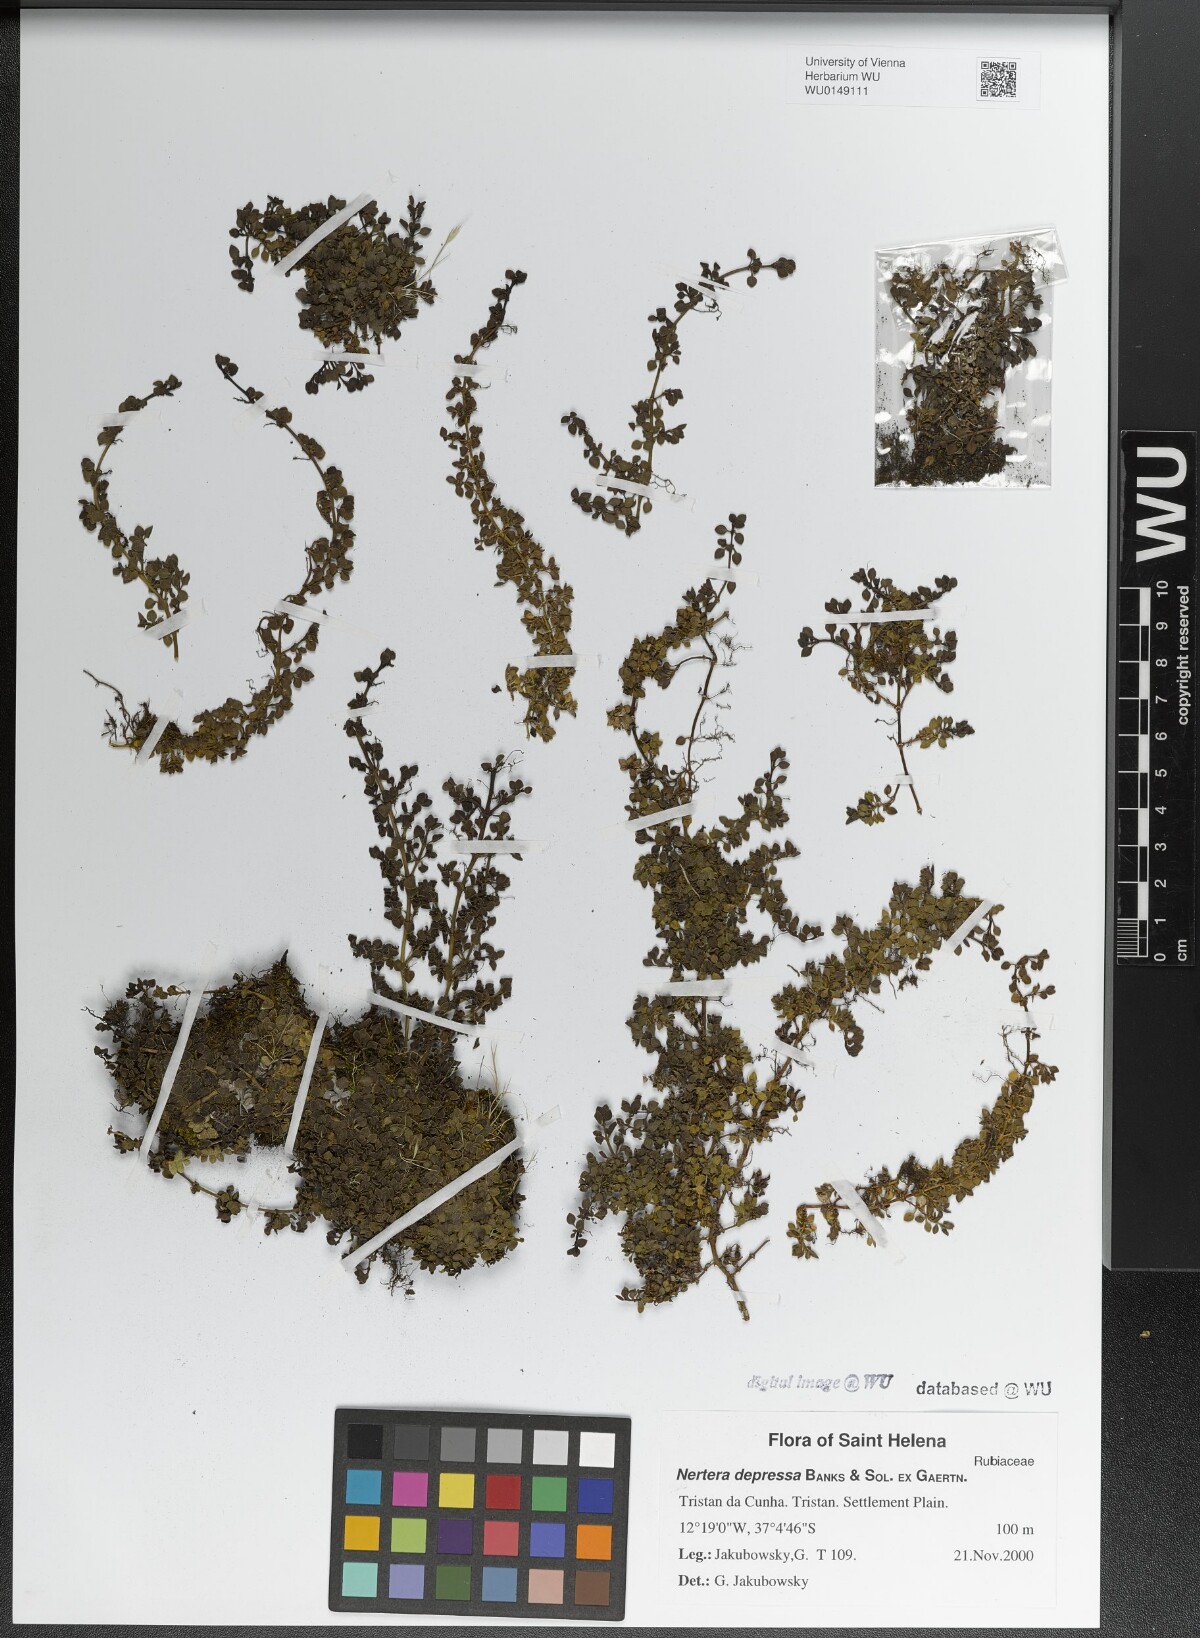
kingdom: Plantae
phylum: Tracheophyta
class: Magnoliopsida
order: Gentianales
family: Rubiaceae
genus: Nertera
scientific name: Nertera granadensis
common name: Beadplant
